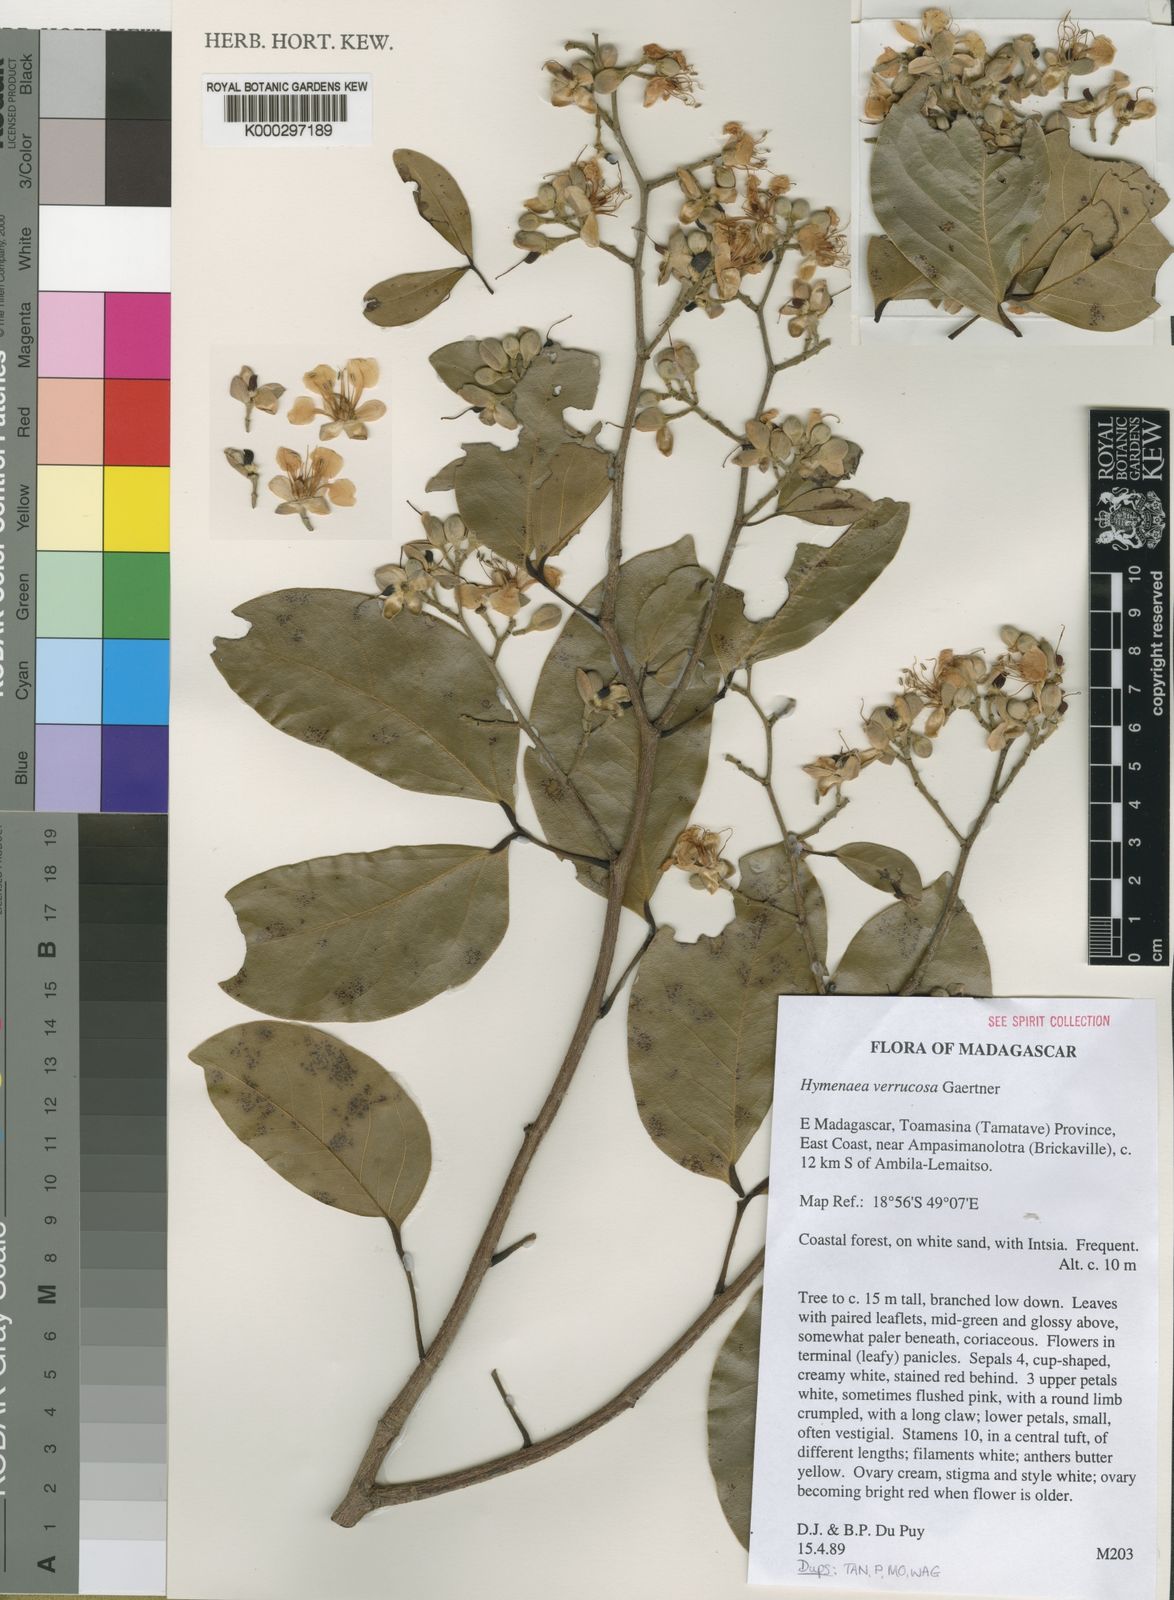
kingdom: Plantae
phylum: Tracheophyta
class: Magnoliopsida
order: Fabales
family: Fabaceae
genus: Hymenaea
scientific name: Hymenaea verrucosa
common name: East african copal
